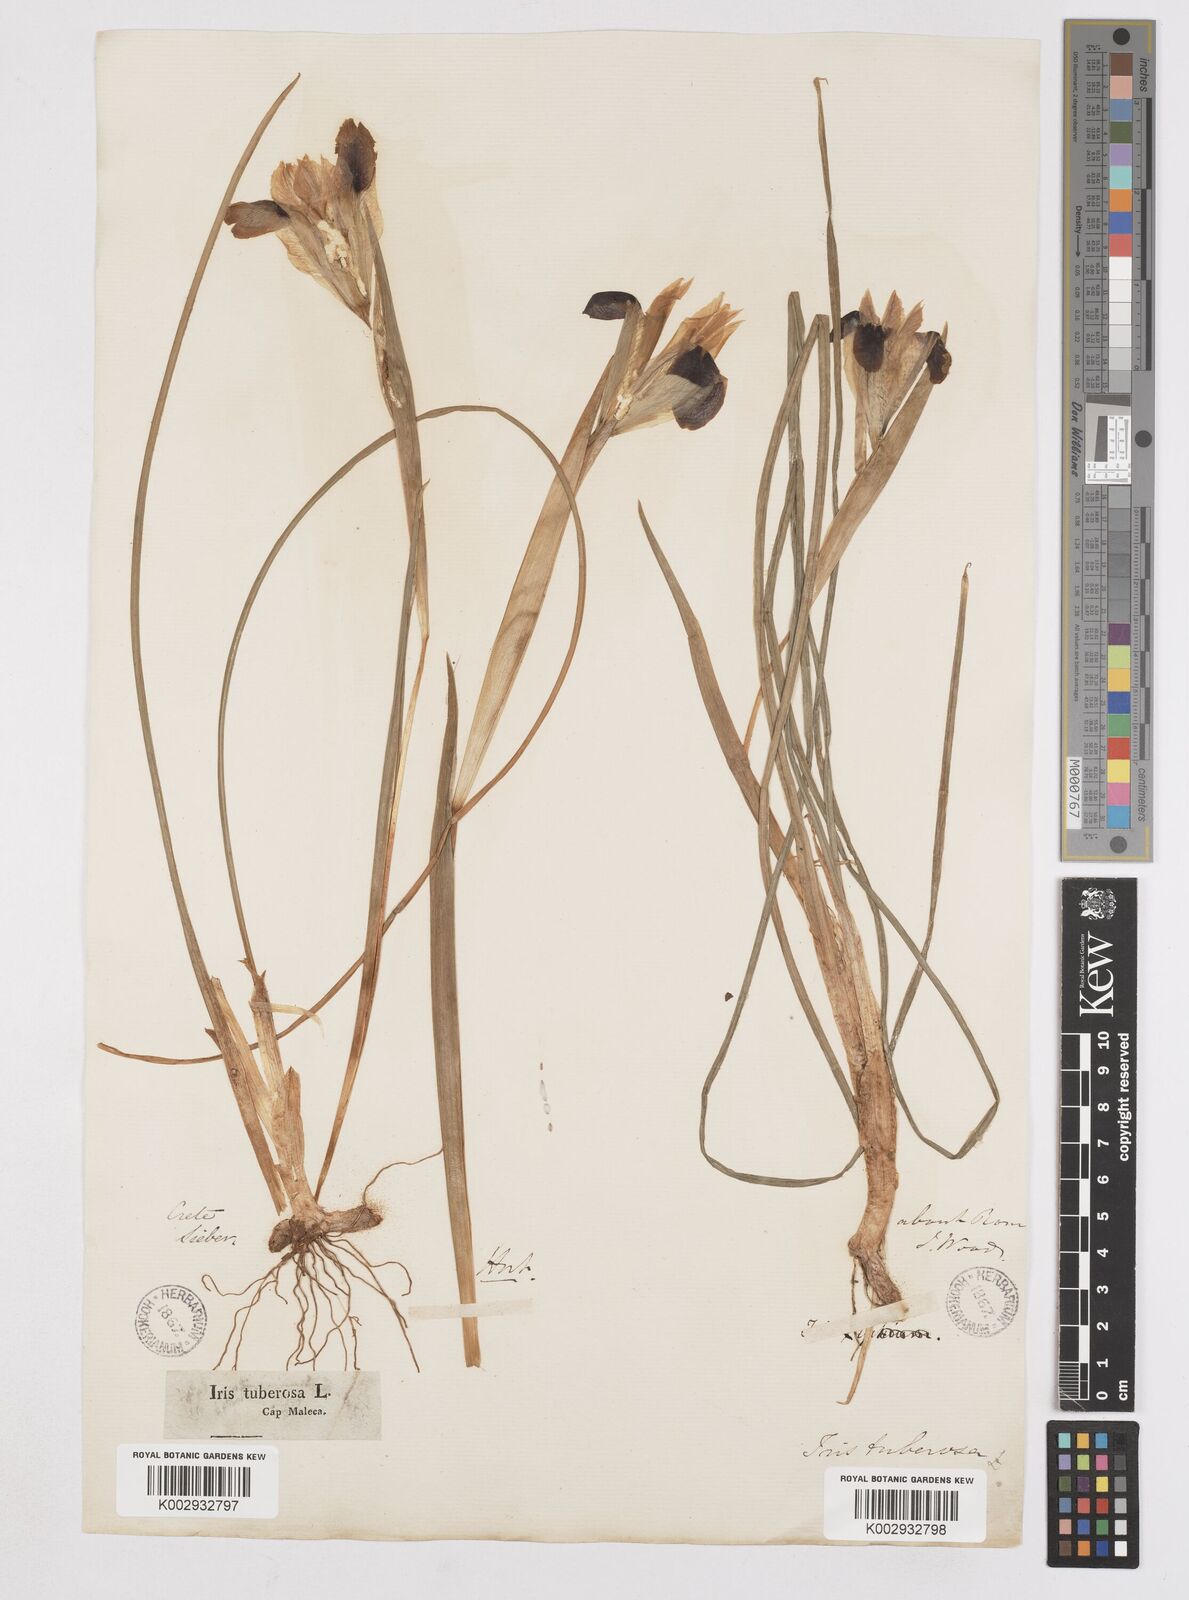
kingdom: Plantae
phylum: Tracheophyta
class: Liliopsida
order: Asparagales
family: Iridaceae
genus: Iris
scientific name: Iris tuberosa
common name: Snake's-head iris
